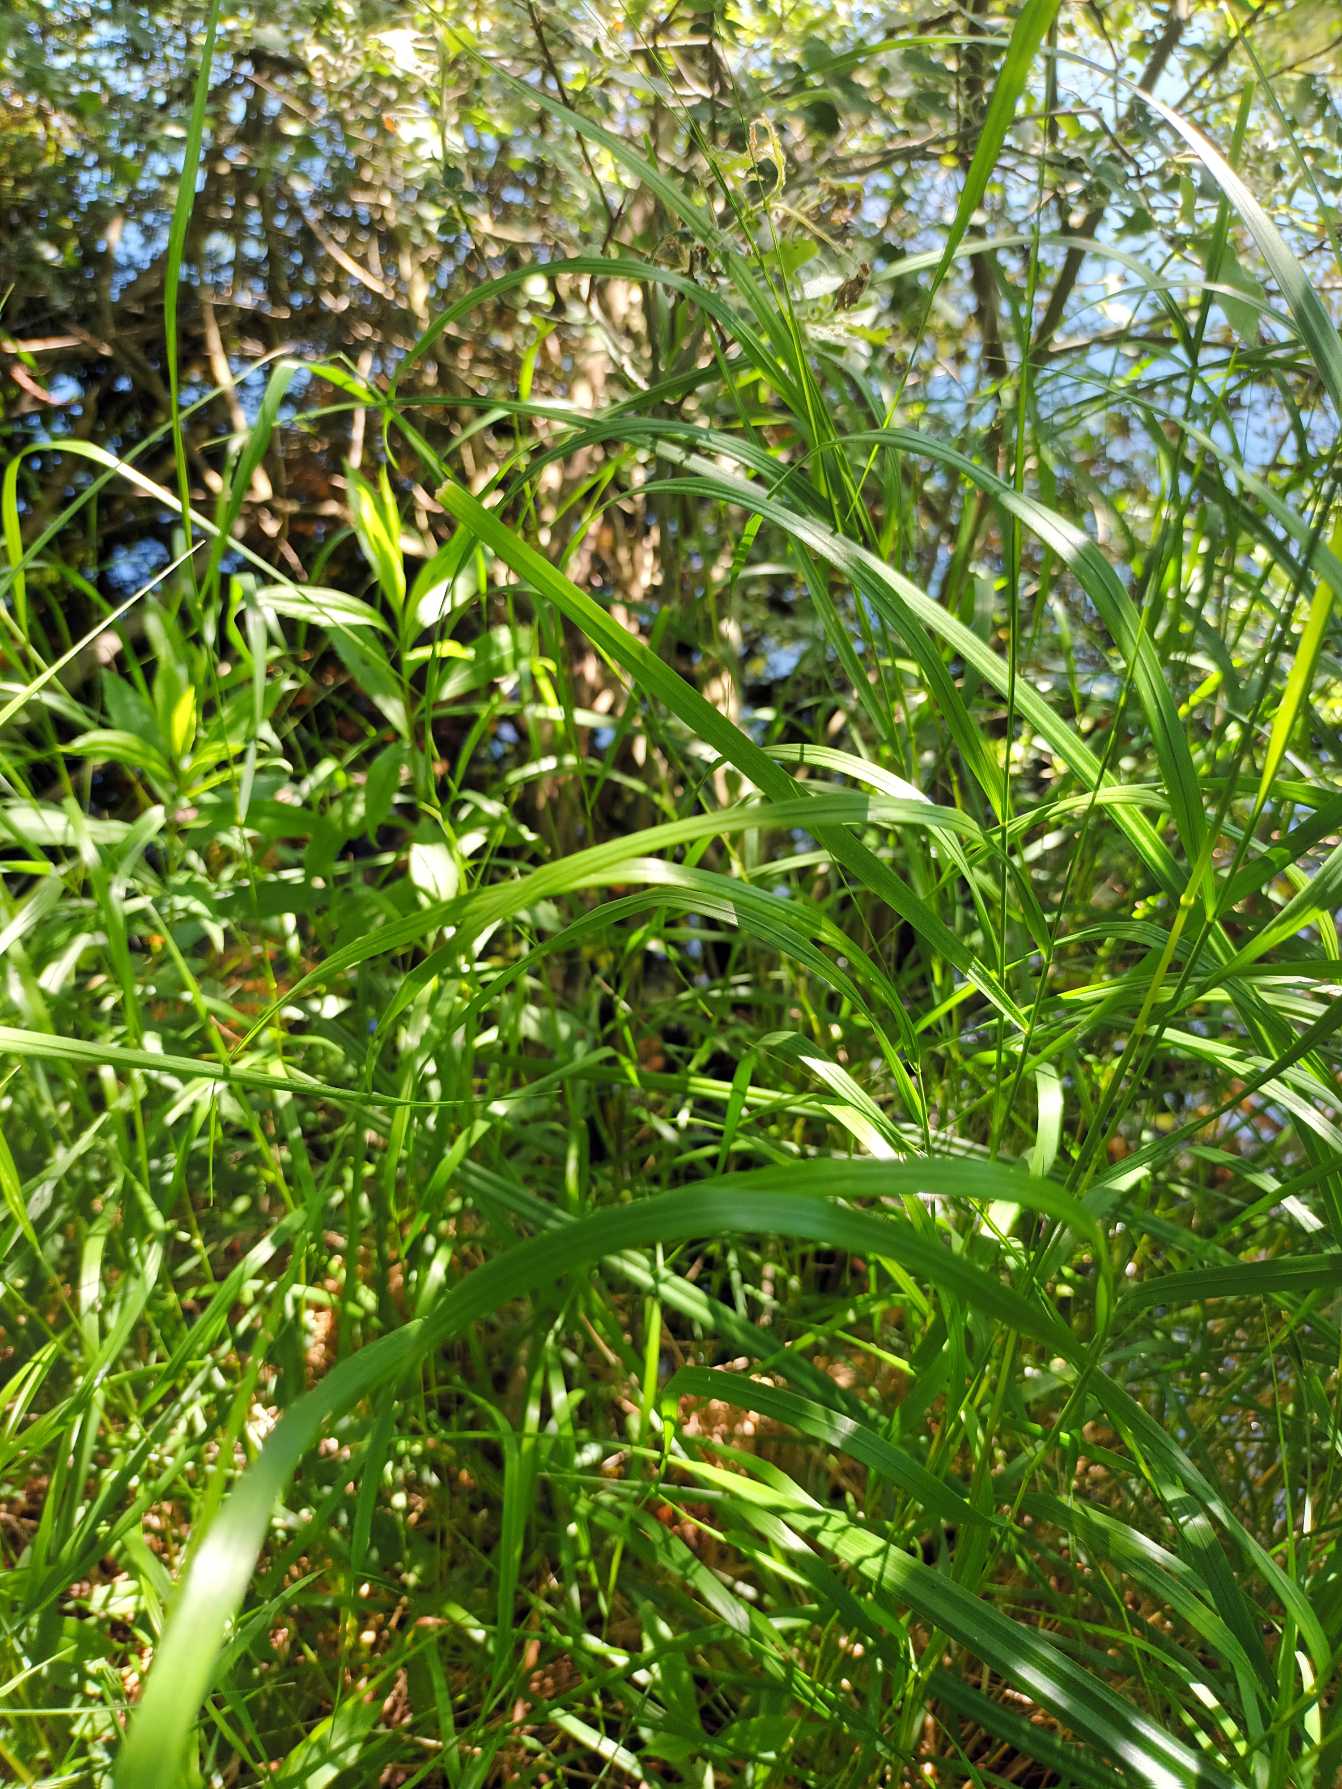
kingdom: Plantae
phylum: Tracheophyta
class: Liliopsida
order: Poales
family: Poaceae
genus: Calamagrostis
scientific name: Calamagrostis canescens
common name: Eng-rørhvene
